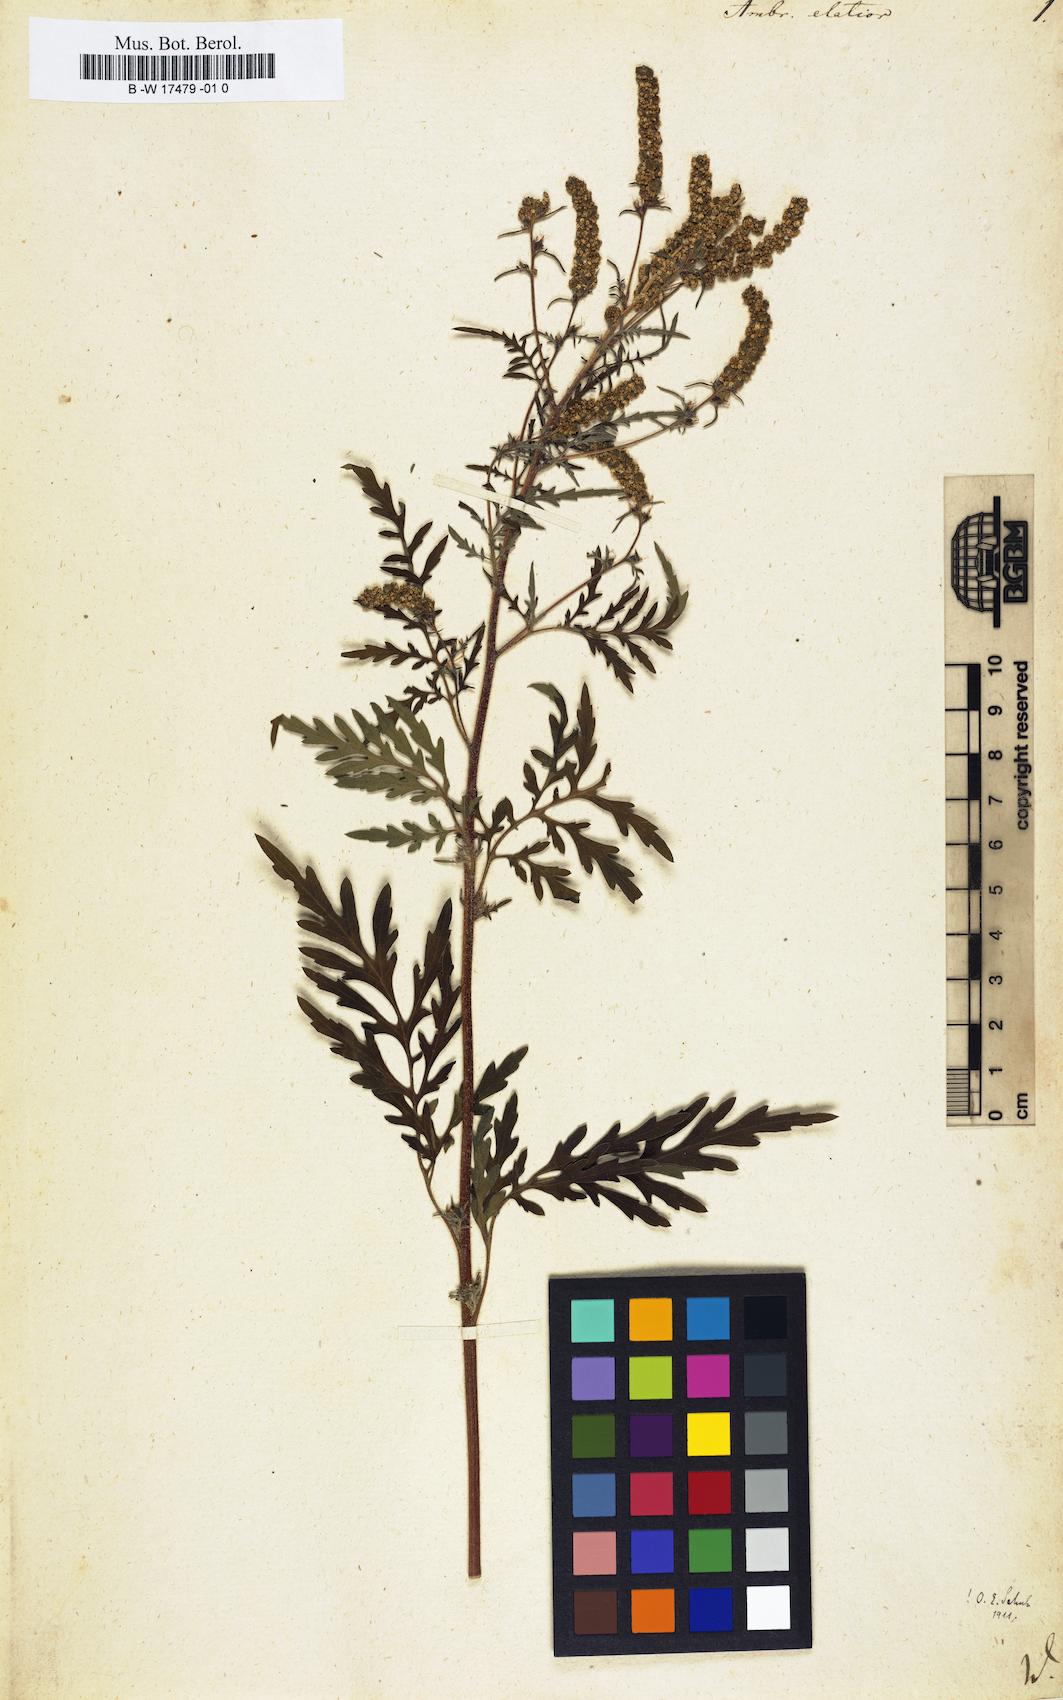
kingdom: Plantae
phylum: Tracheophyta
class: Magnoliopsida
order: Asterales
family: Asteraceae
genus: Ambrosia
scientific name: Ambrosia artemisiifolia
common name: Annual ragweed
